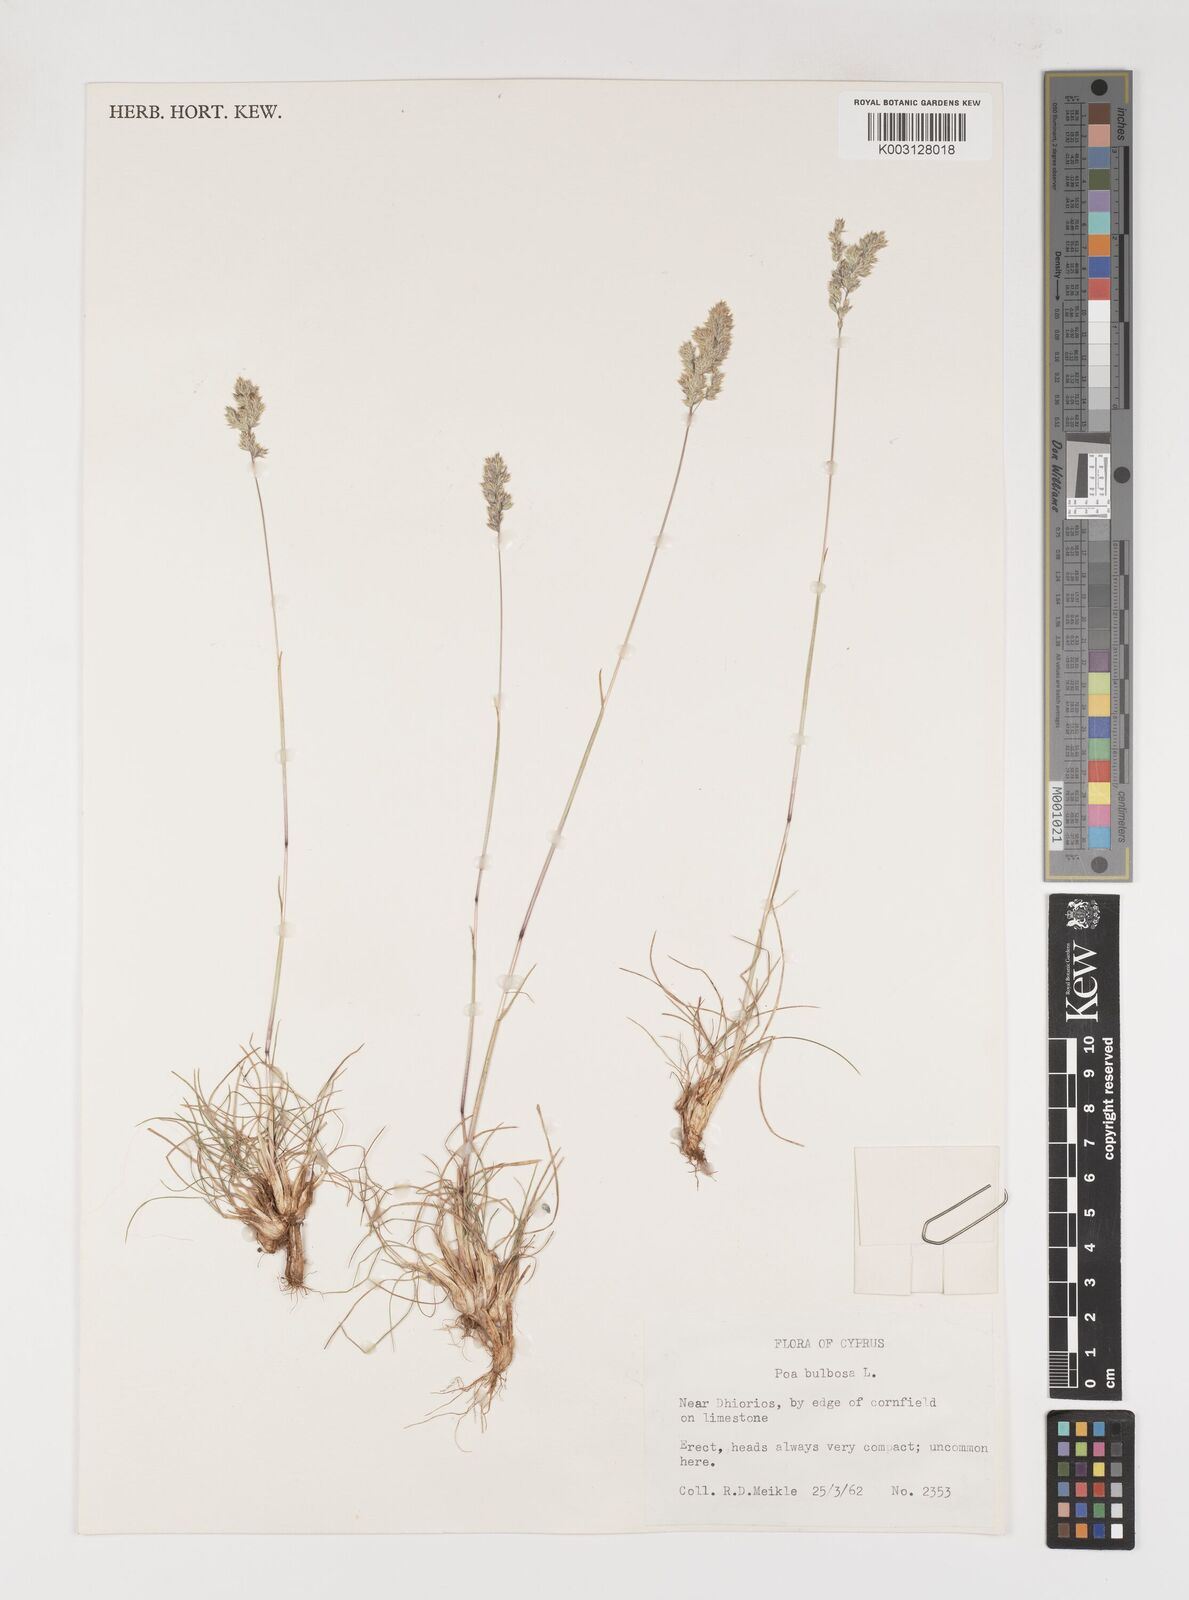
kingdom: Plantae
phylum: Tracheophyta
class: Liliopsida
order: Poales
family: Poaceae
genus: Poa
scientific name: Poa bulbosa
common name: Bulbous bluegrass
